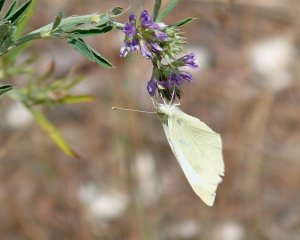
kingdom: Animalia
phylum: Arthropoda
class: Insecta
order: Lepidoptera
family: Pieridae
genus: Pieris
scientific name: Pieris rapae
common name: Cabbage White
